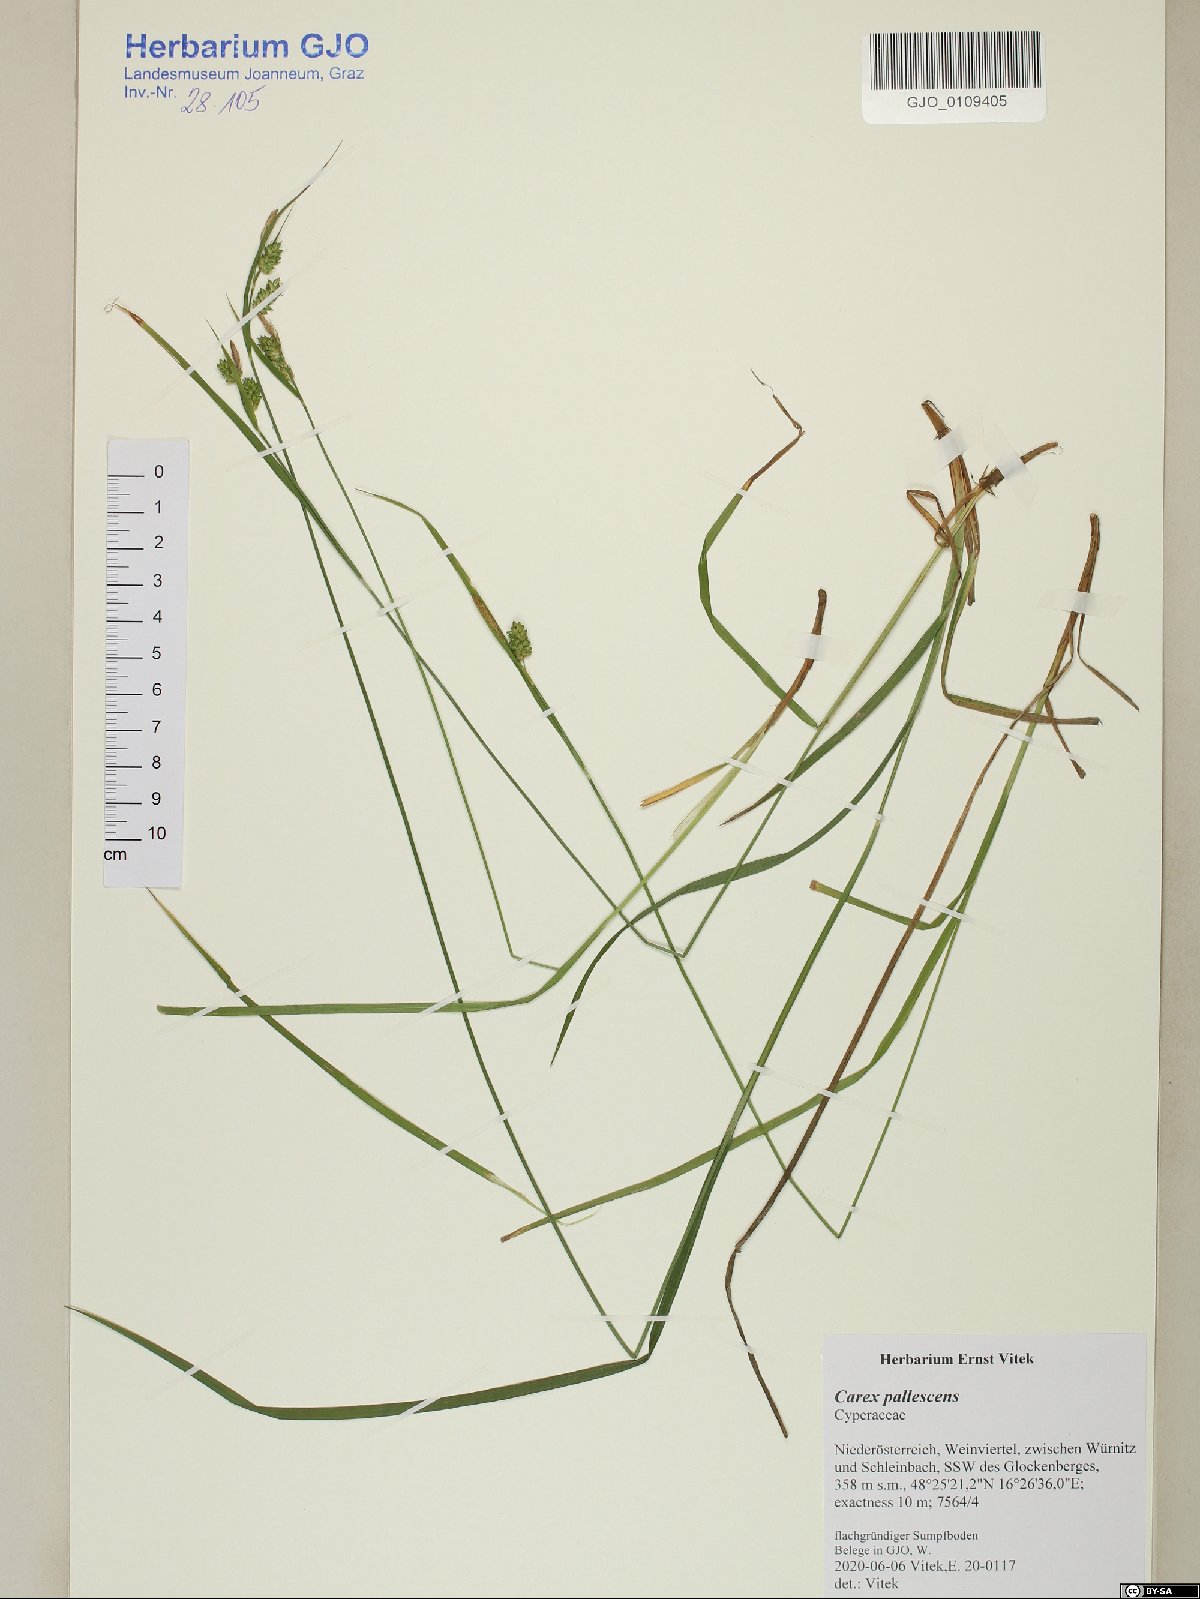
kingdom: Plantae
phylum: Tracheophyta
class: Liliopsida
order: Poales
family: Cyperaceae
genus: Carex
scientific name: Carex pallescens
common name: Pale sedge
